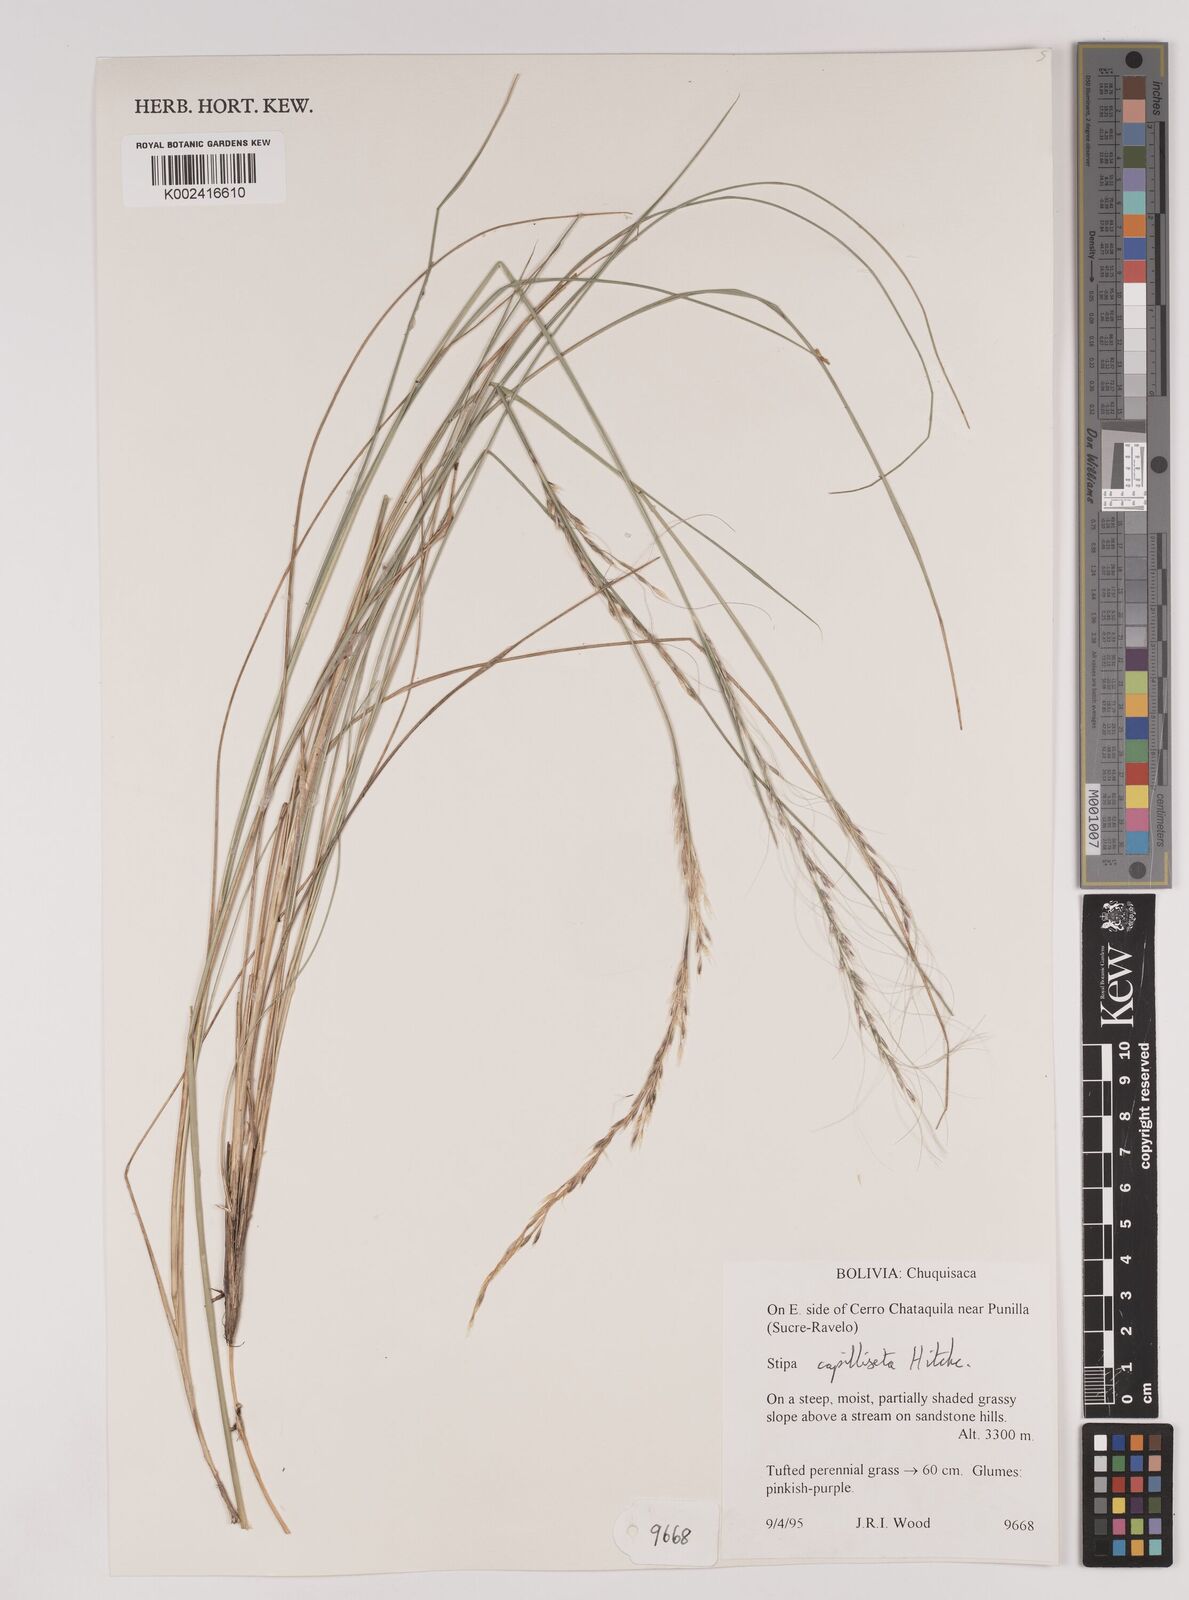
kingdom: Plantae
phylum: Tracheophyta
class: Liliopsida
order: Poales
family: Poaceae
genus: Jarava
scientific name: Jarava leptostachya
